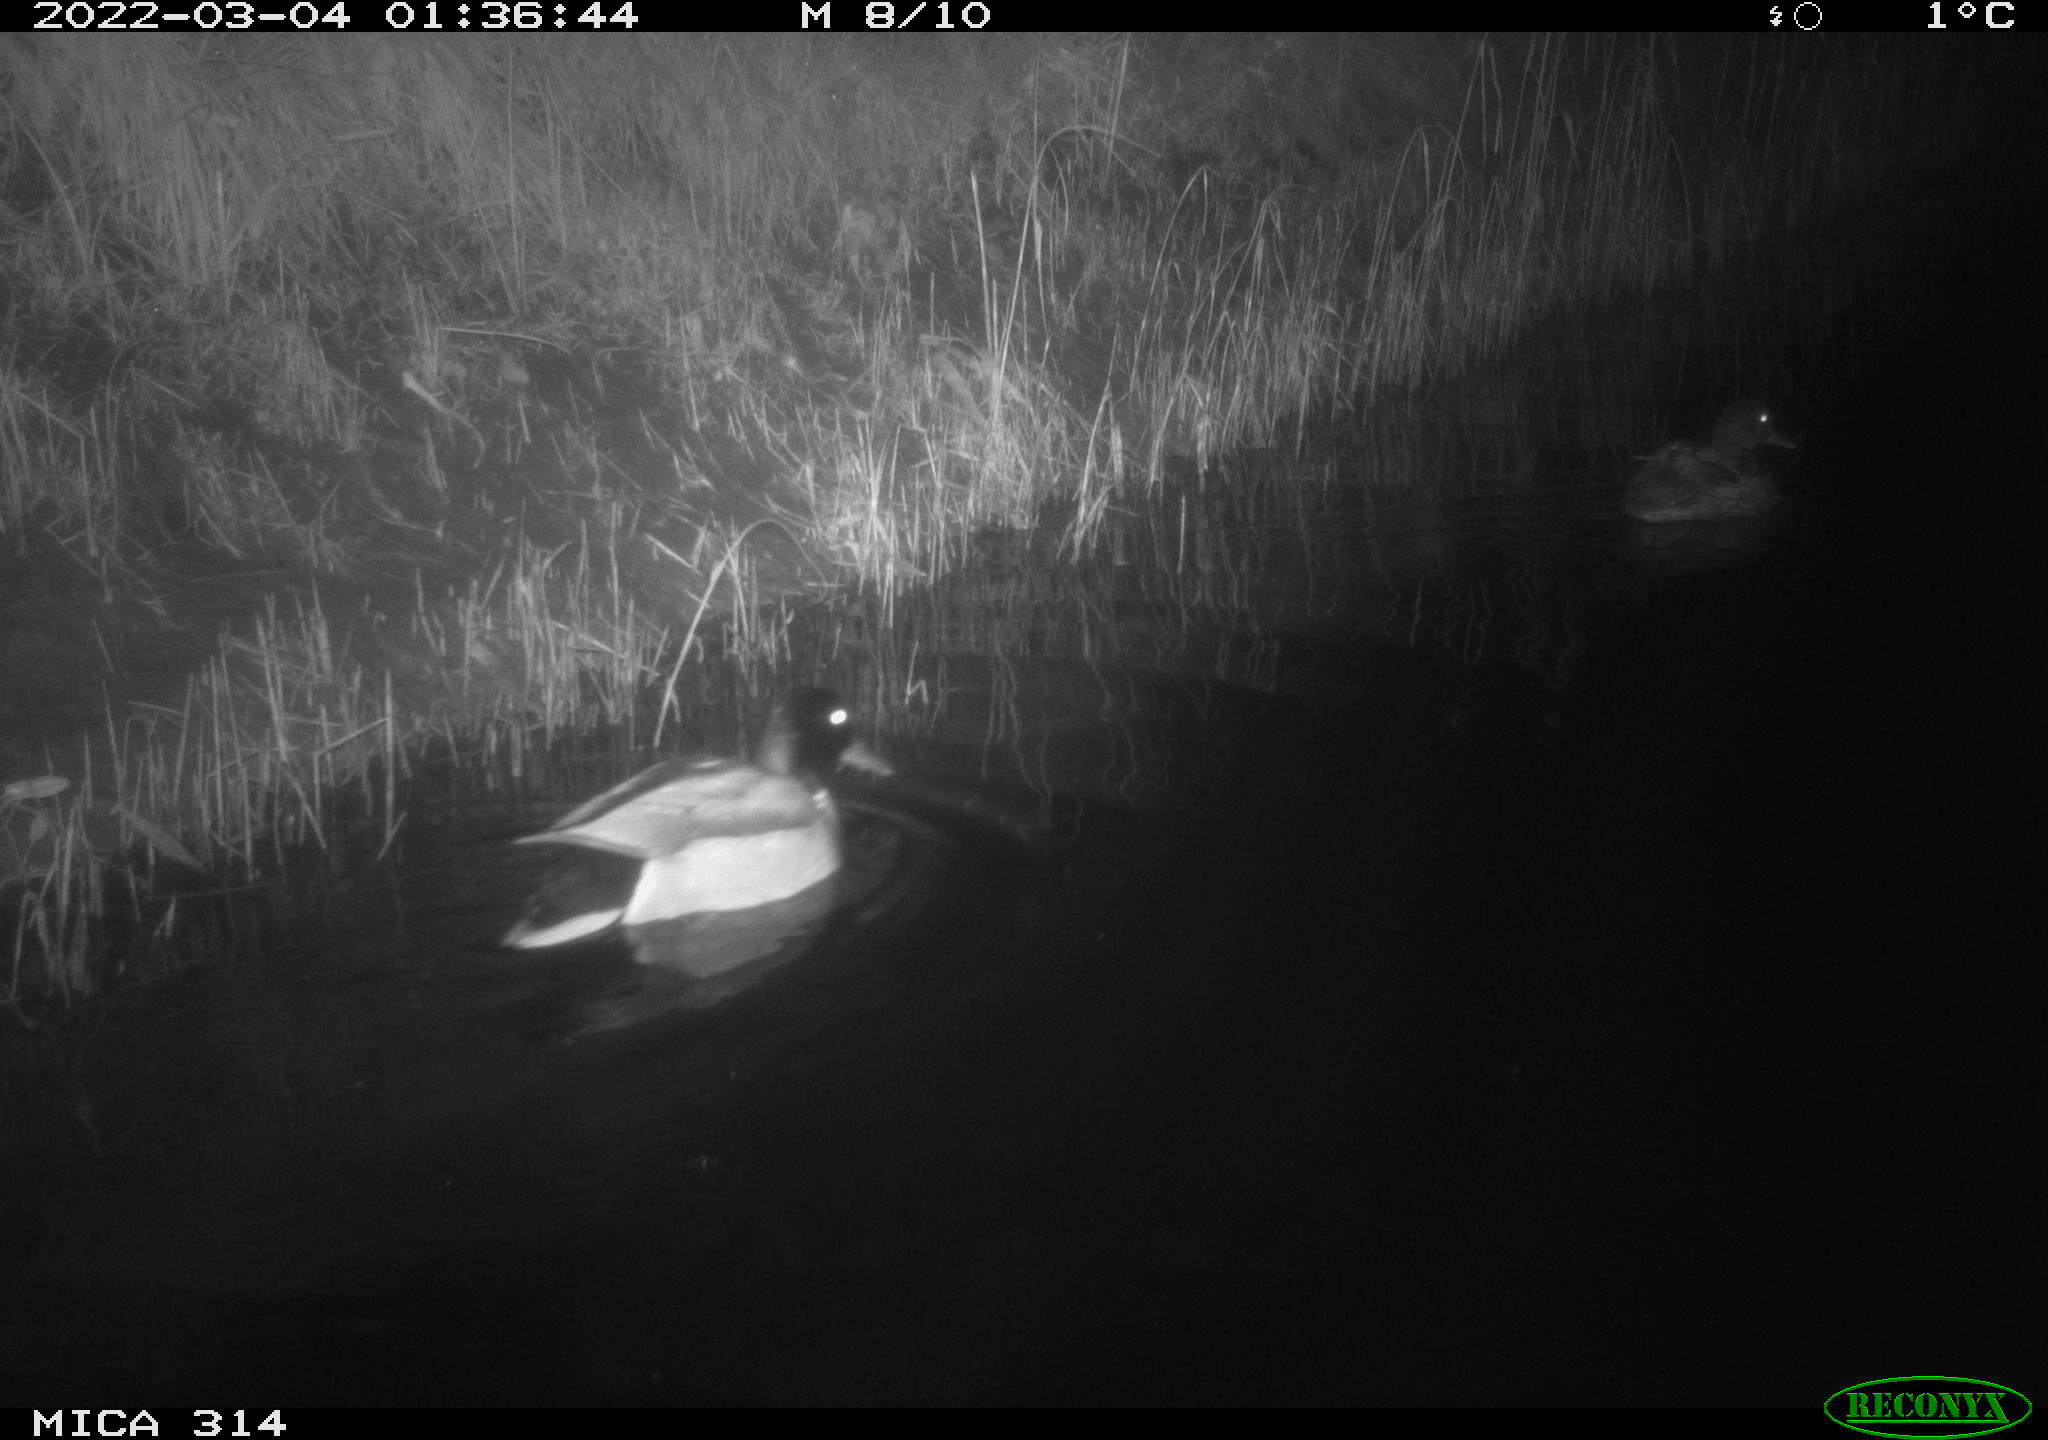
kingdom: Animalia
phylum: Chordata
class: Aves
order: Anseriformes
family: Anatidae
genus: Anas
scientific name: Anas platyrhynchos
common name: Mallard
